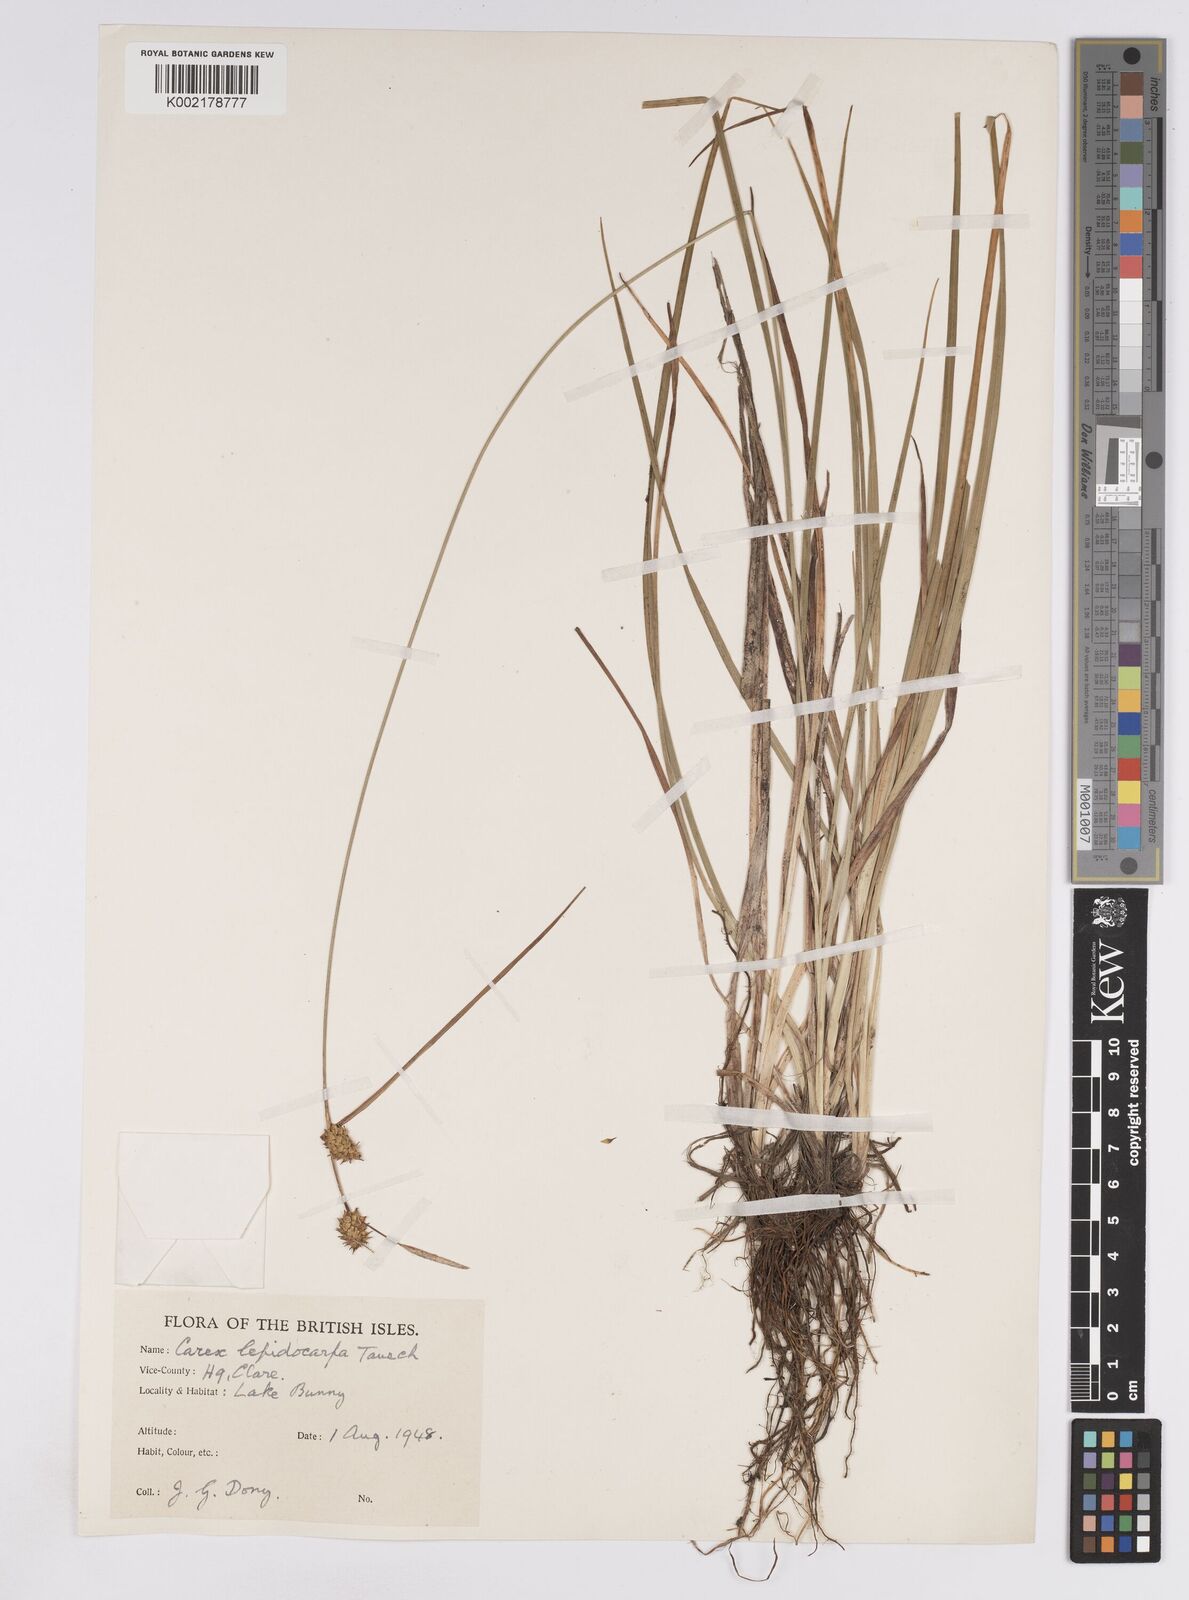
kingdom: Plantae
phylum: Tracheophyta
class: Liliopsida
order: Poales
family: Cyperaceae
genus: Carex
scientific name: Carex lepidocarpa
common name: Long-stalked yellow-sedge
